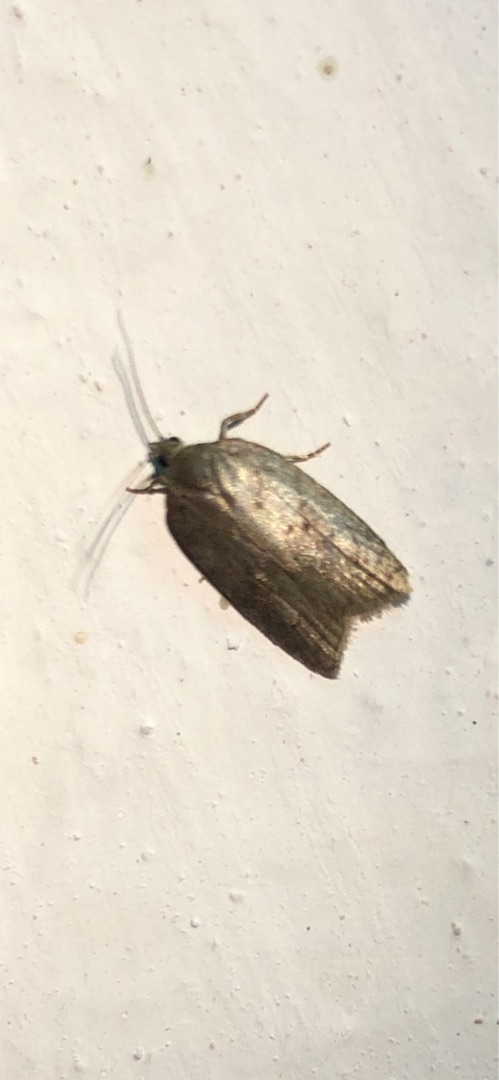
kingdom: Animalia
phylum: Arthropoda
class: Insecta
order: Lepidoptera
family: Tortricidae
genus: Acleris
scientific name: Acleris sparsana
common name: Bøgevintervikler
